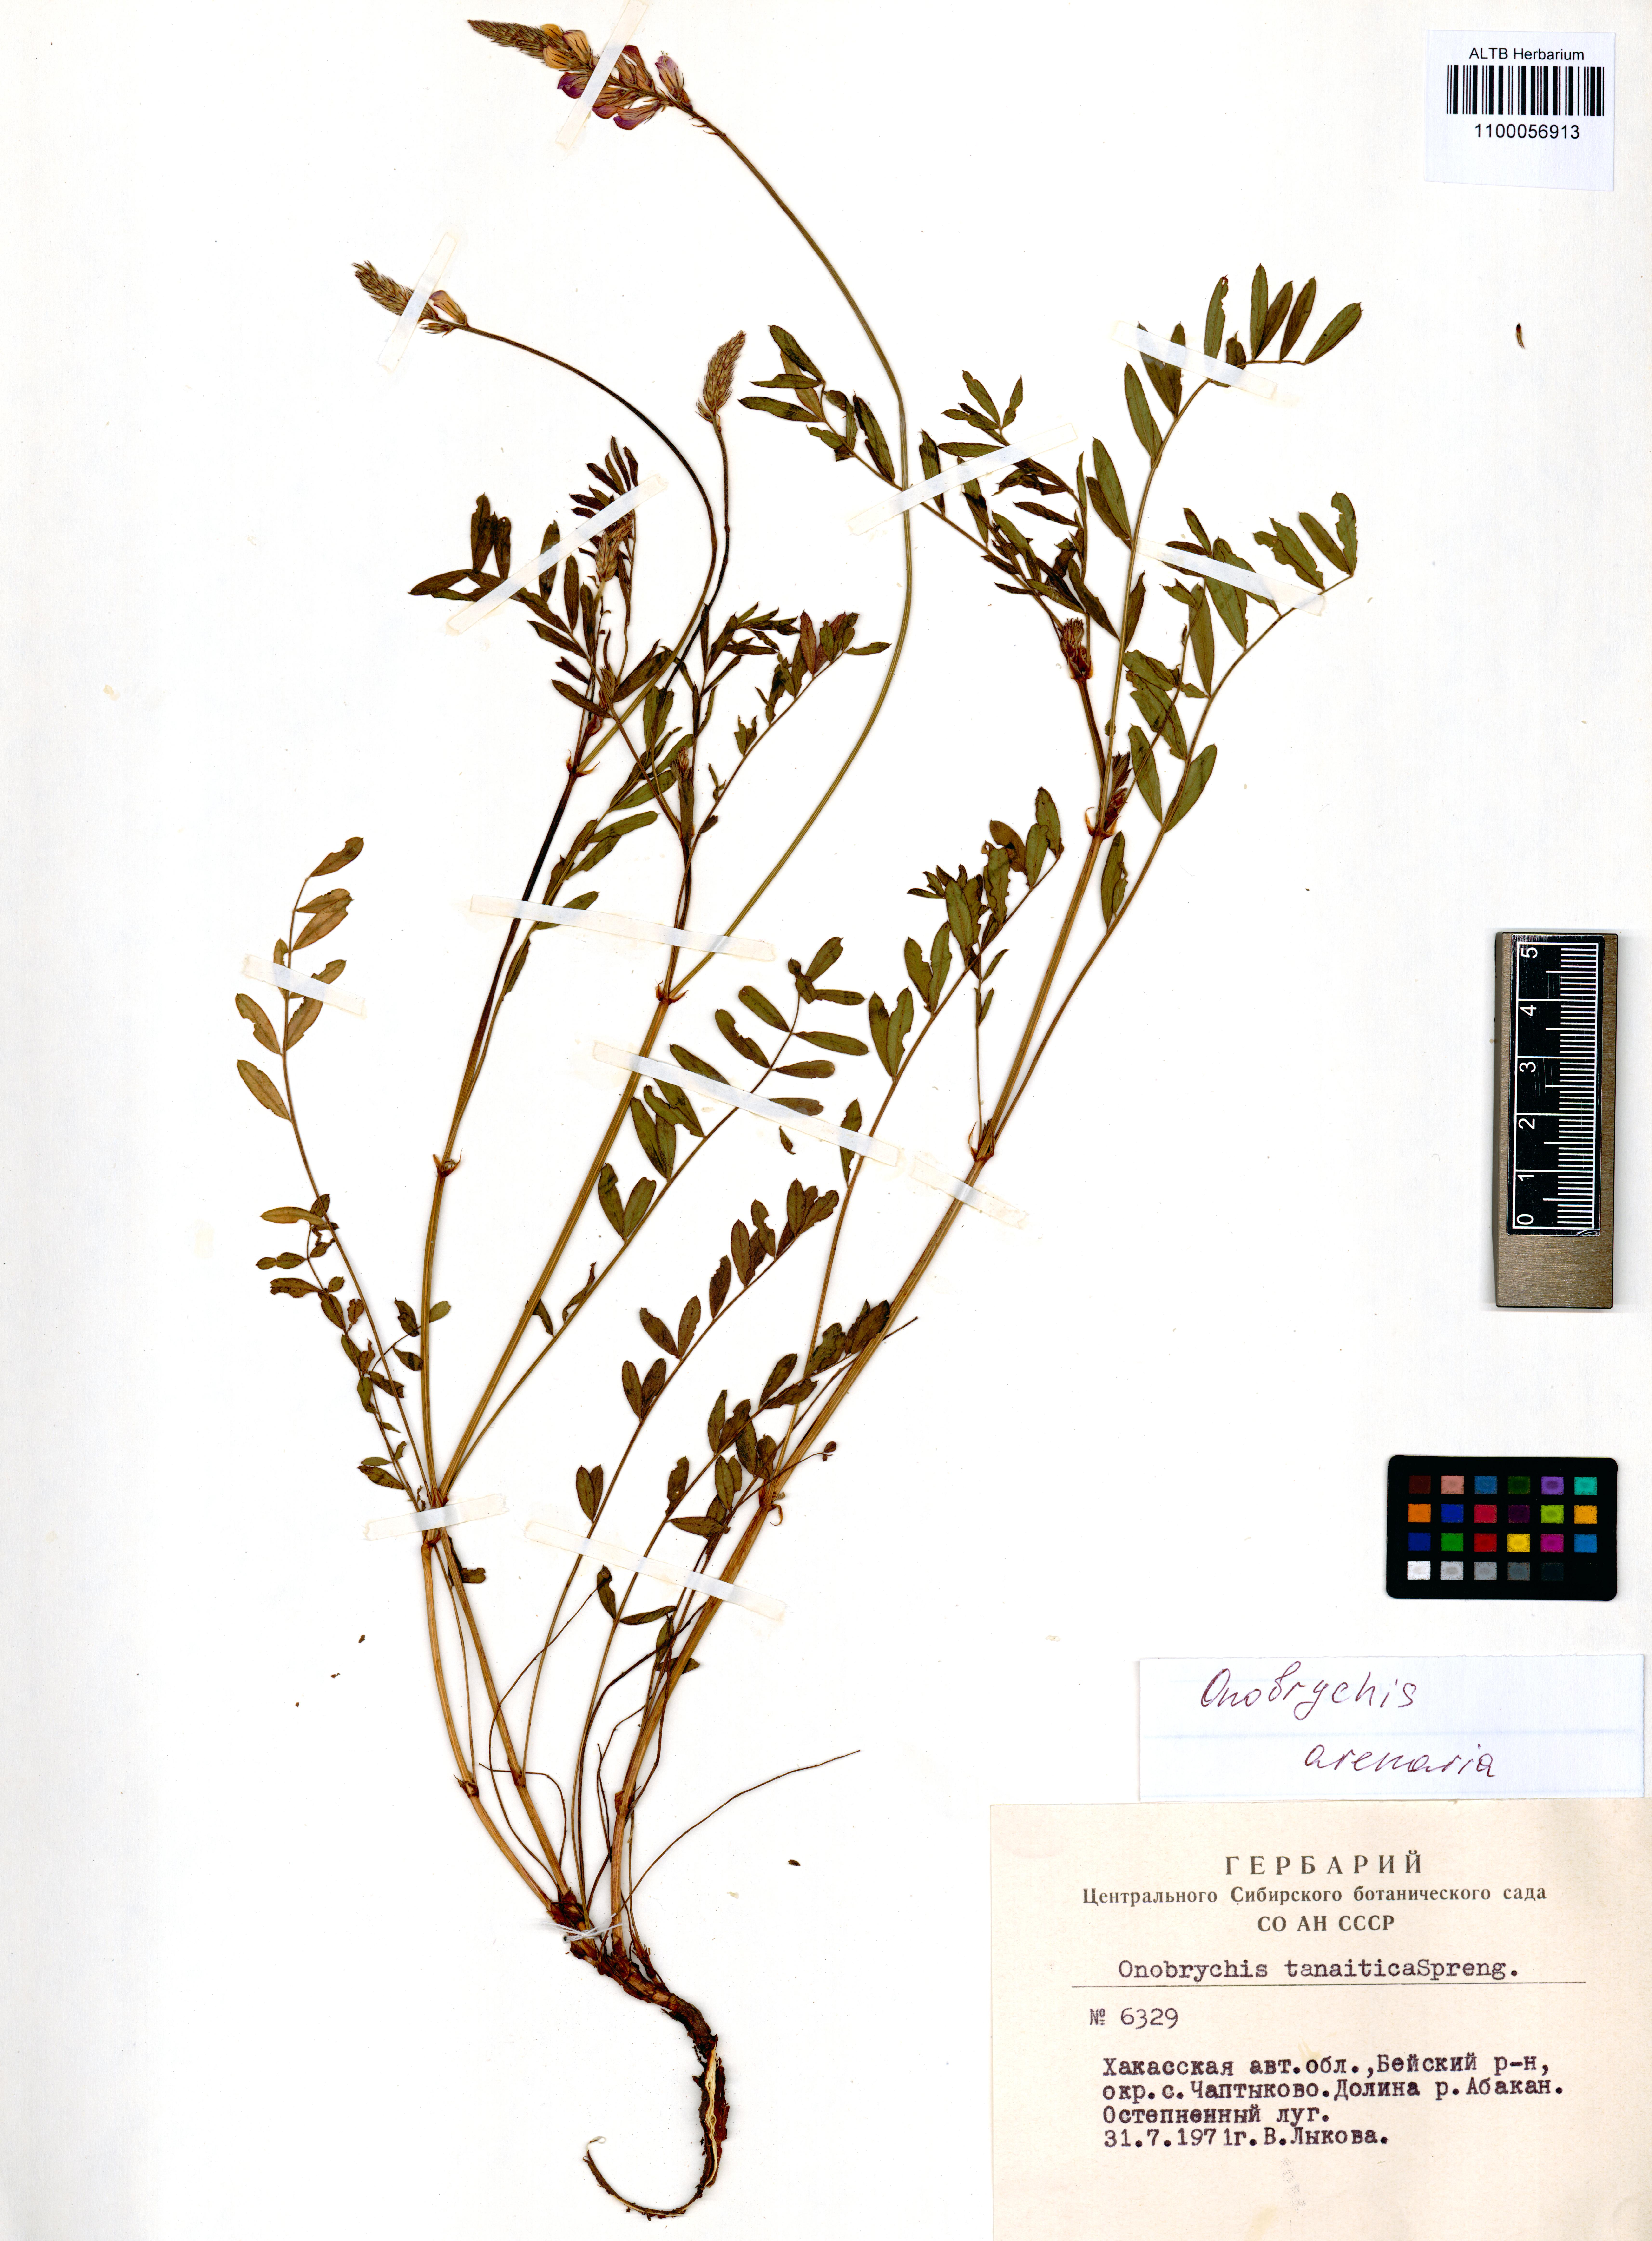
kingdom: Plantae
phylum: Tracheophyta
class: Magnoliopsida
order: Fabales
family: Fabaceae
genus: Onobrychis
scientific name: Onobrychis arenaria
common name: Sand esparcet
